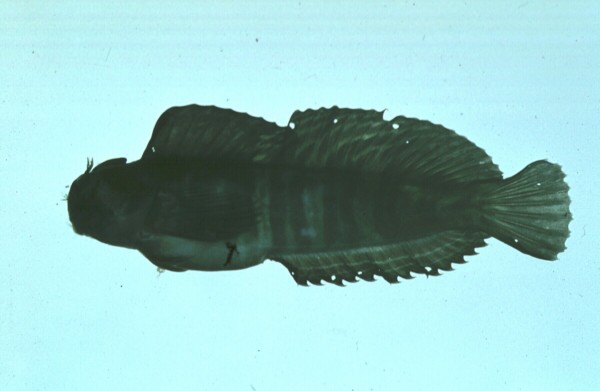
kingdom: Animalia
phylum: Chordata
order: Perciformes
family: Blenniidae
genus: Istiblennius
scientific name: Istiblennius edentulus
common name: Rippled rockskipper
